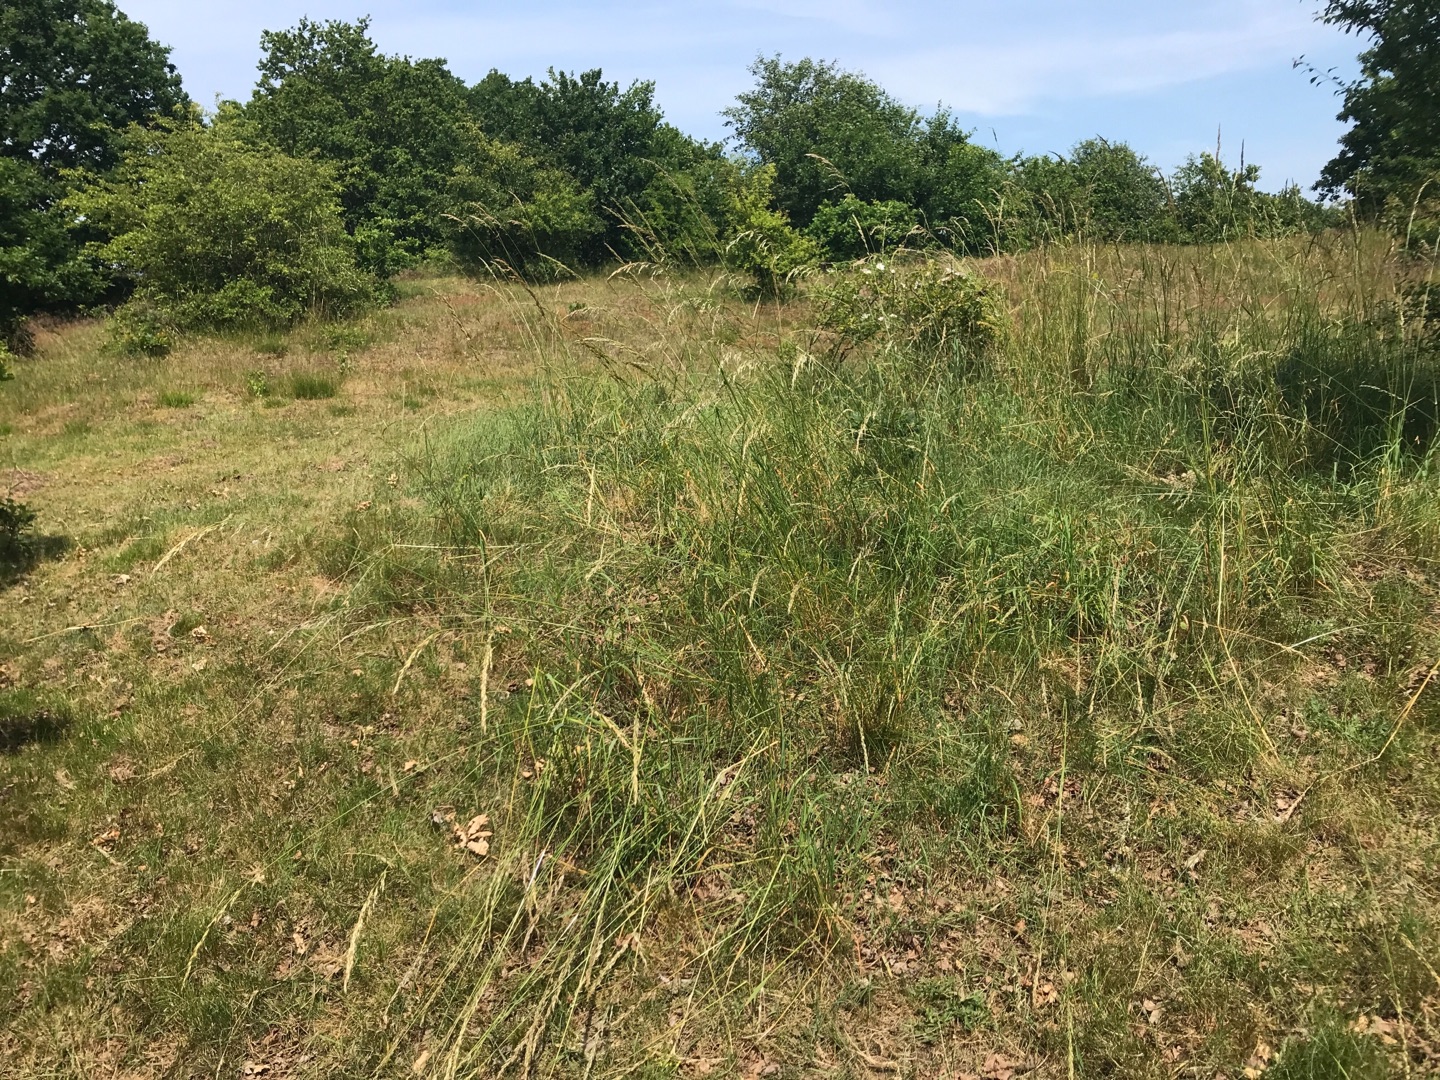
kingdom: Plantae
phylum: Tracheophyta
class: Liliopsida
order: Poales
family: Poaceae
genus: Arrhenatherum
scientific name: Arrhenatherum elatius
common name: Draphavre
